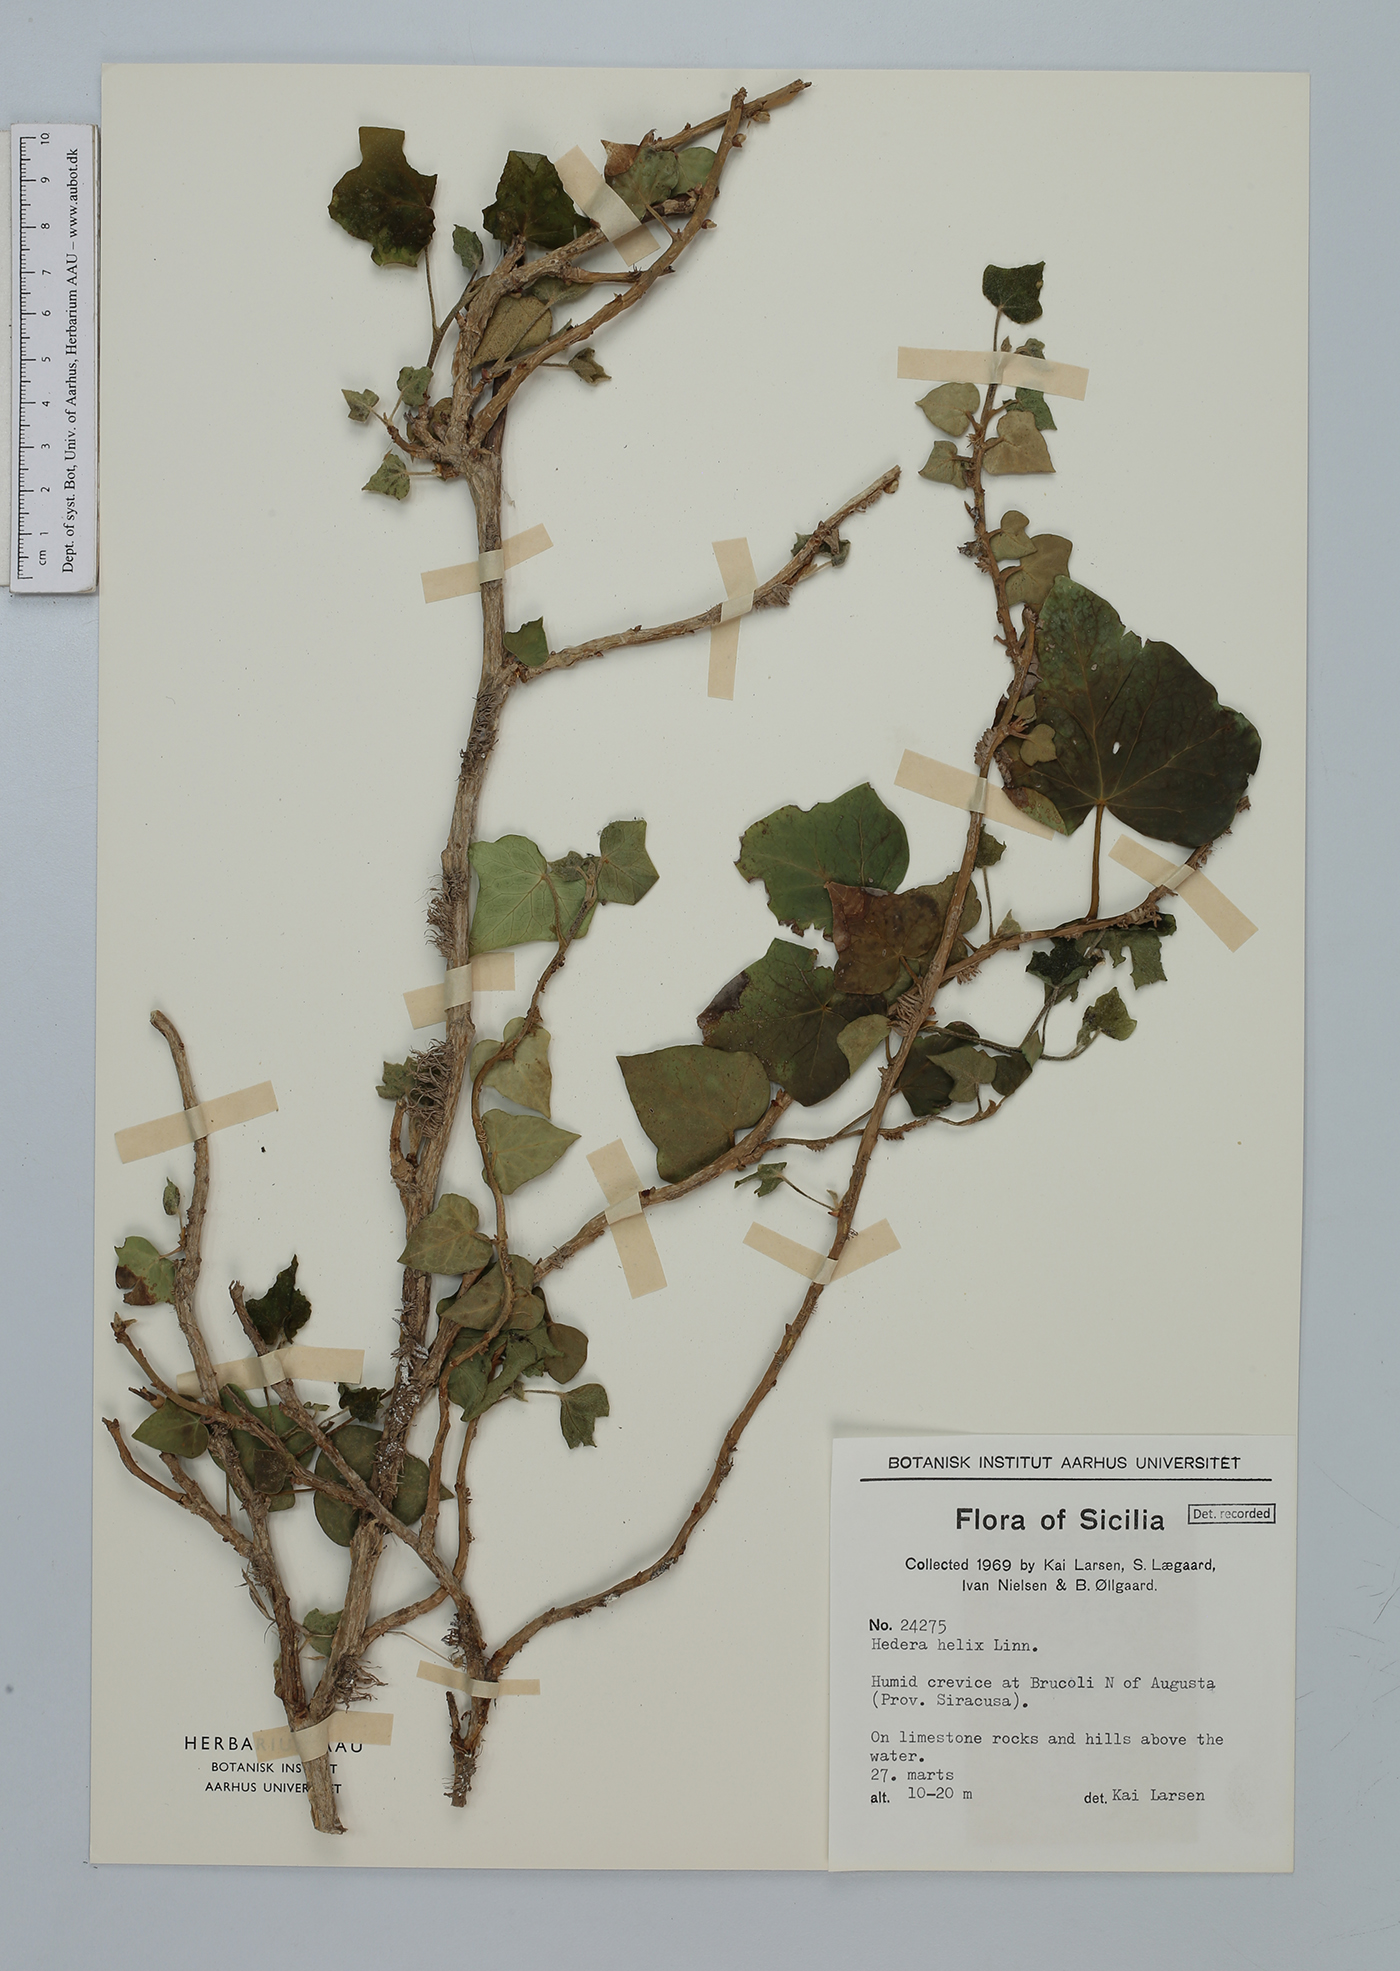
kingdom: Plantae
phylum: Tracheophyta
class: Magnoliopsida
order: Apiales
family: Araliaceae
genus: Hedera
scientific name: Hedera helix
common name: Ivy
